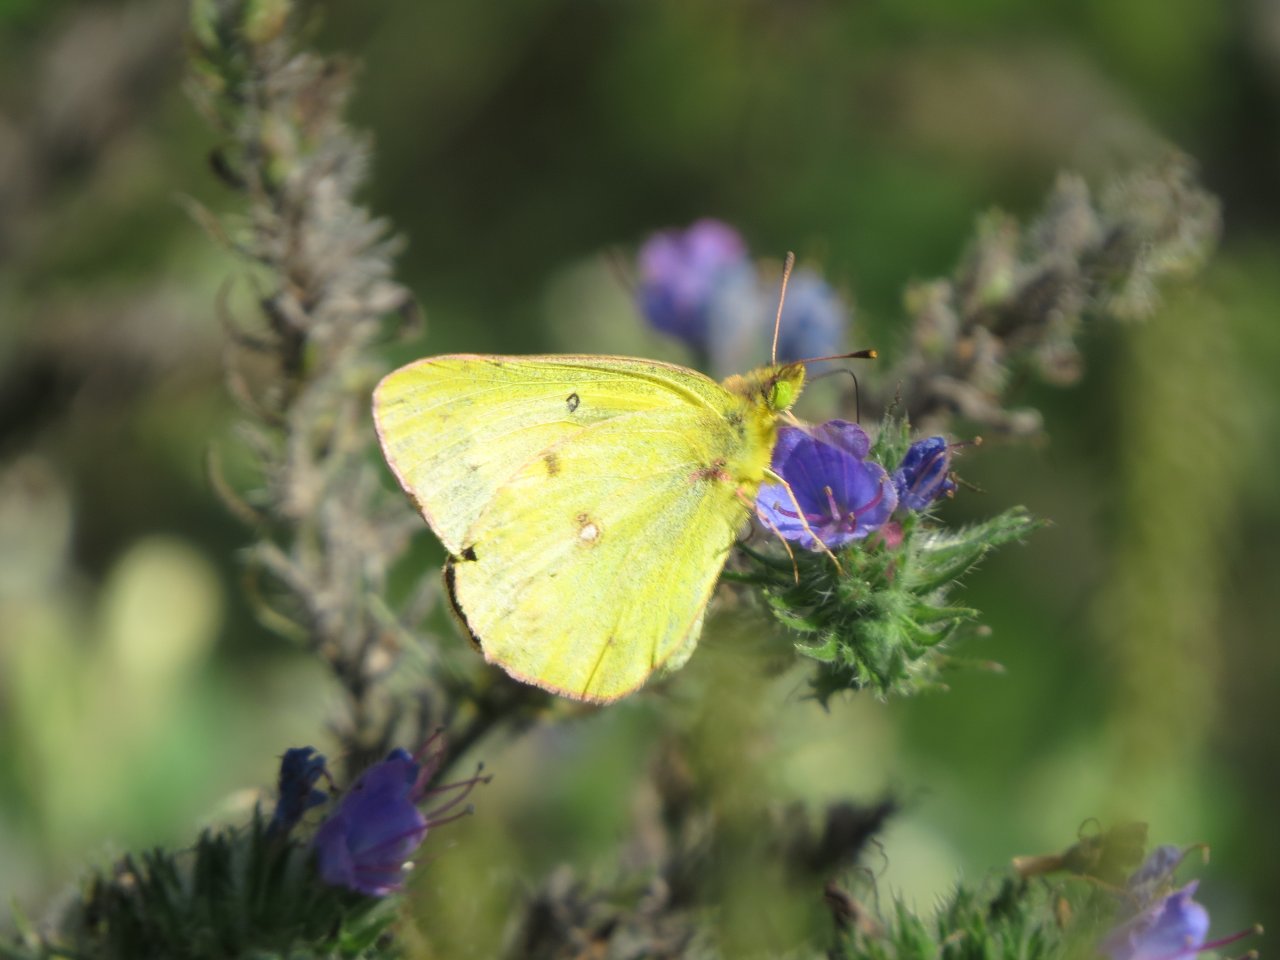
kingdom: Animalia
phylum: Arthropoda
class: Insecta
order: Lepidoptera
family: Pieridae
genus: Colias
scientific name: Colias philodice
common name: Clouded Sulphur
